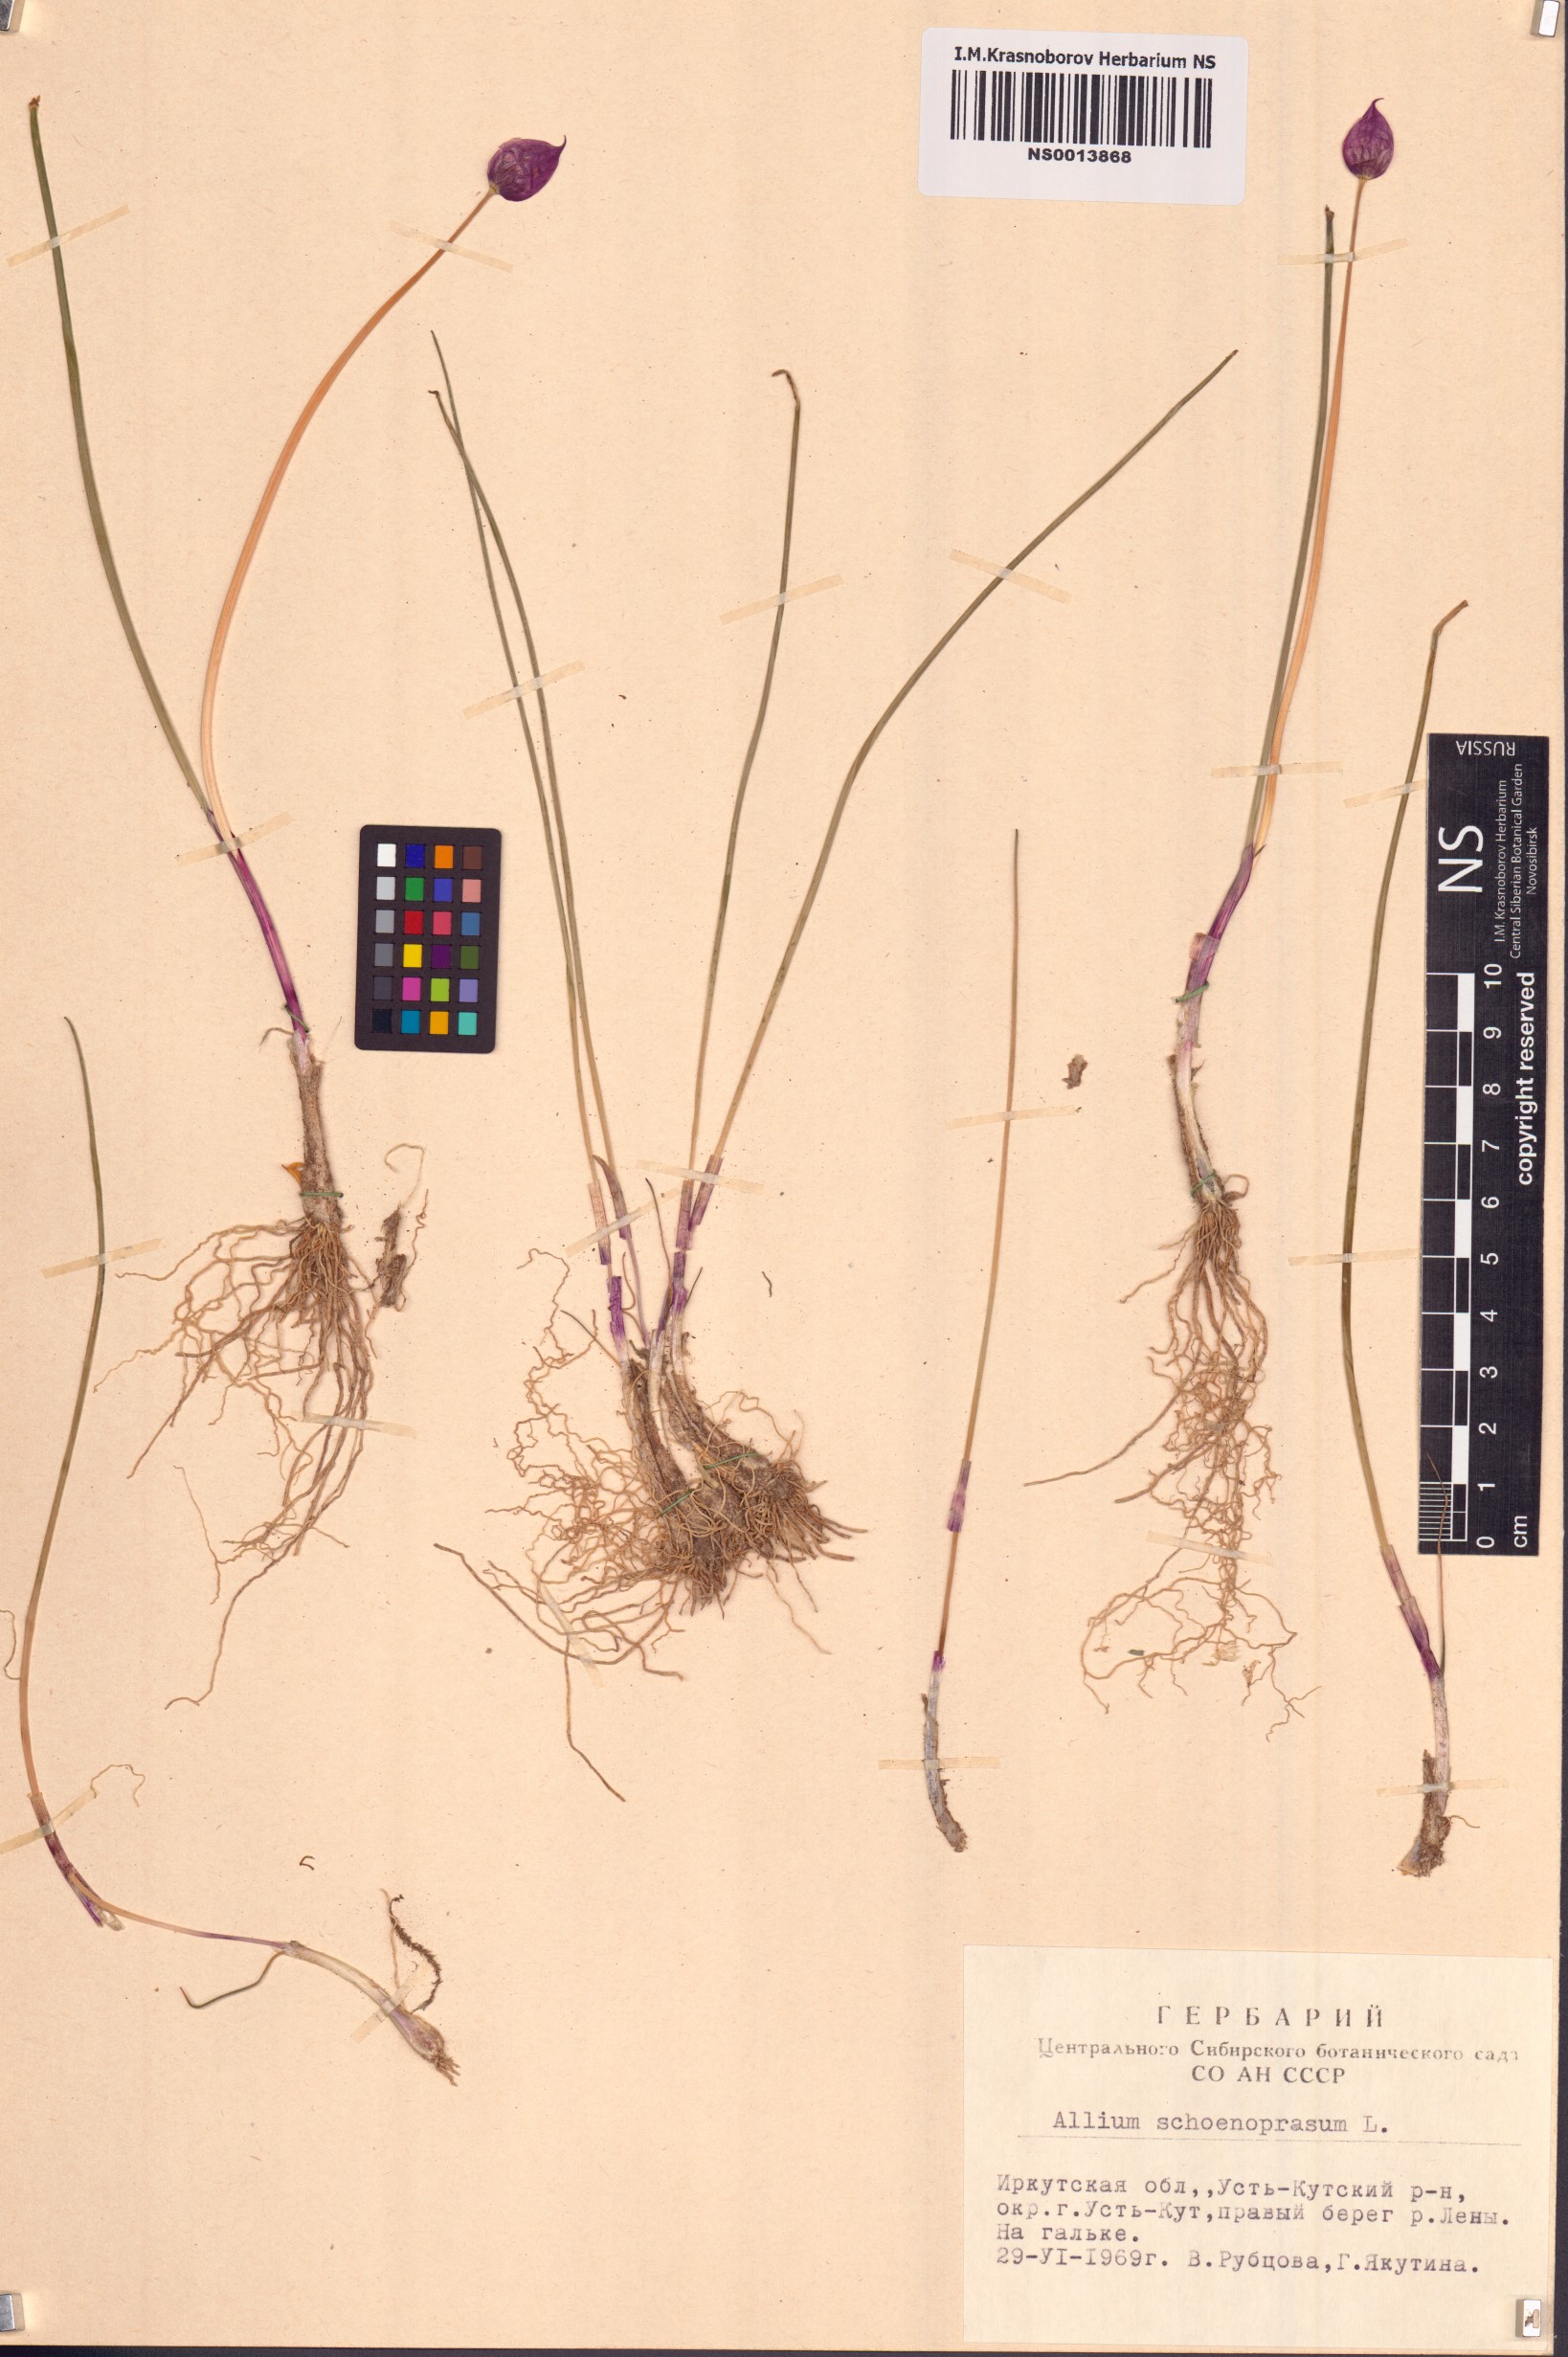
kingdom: Plantae
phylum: Tracheophyta
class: Liliopsida
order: Asparagales
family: Amaryllidaceae
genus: Allium
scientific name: Allium schoenoprasum
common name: Chives
